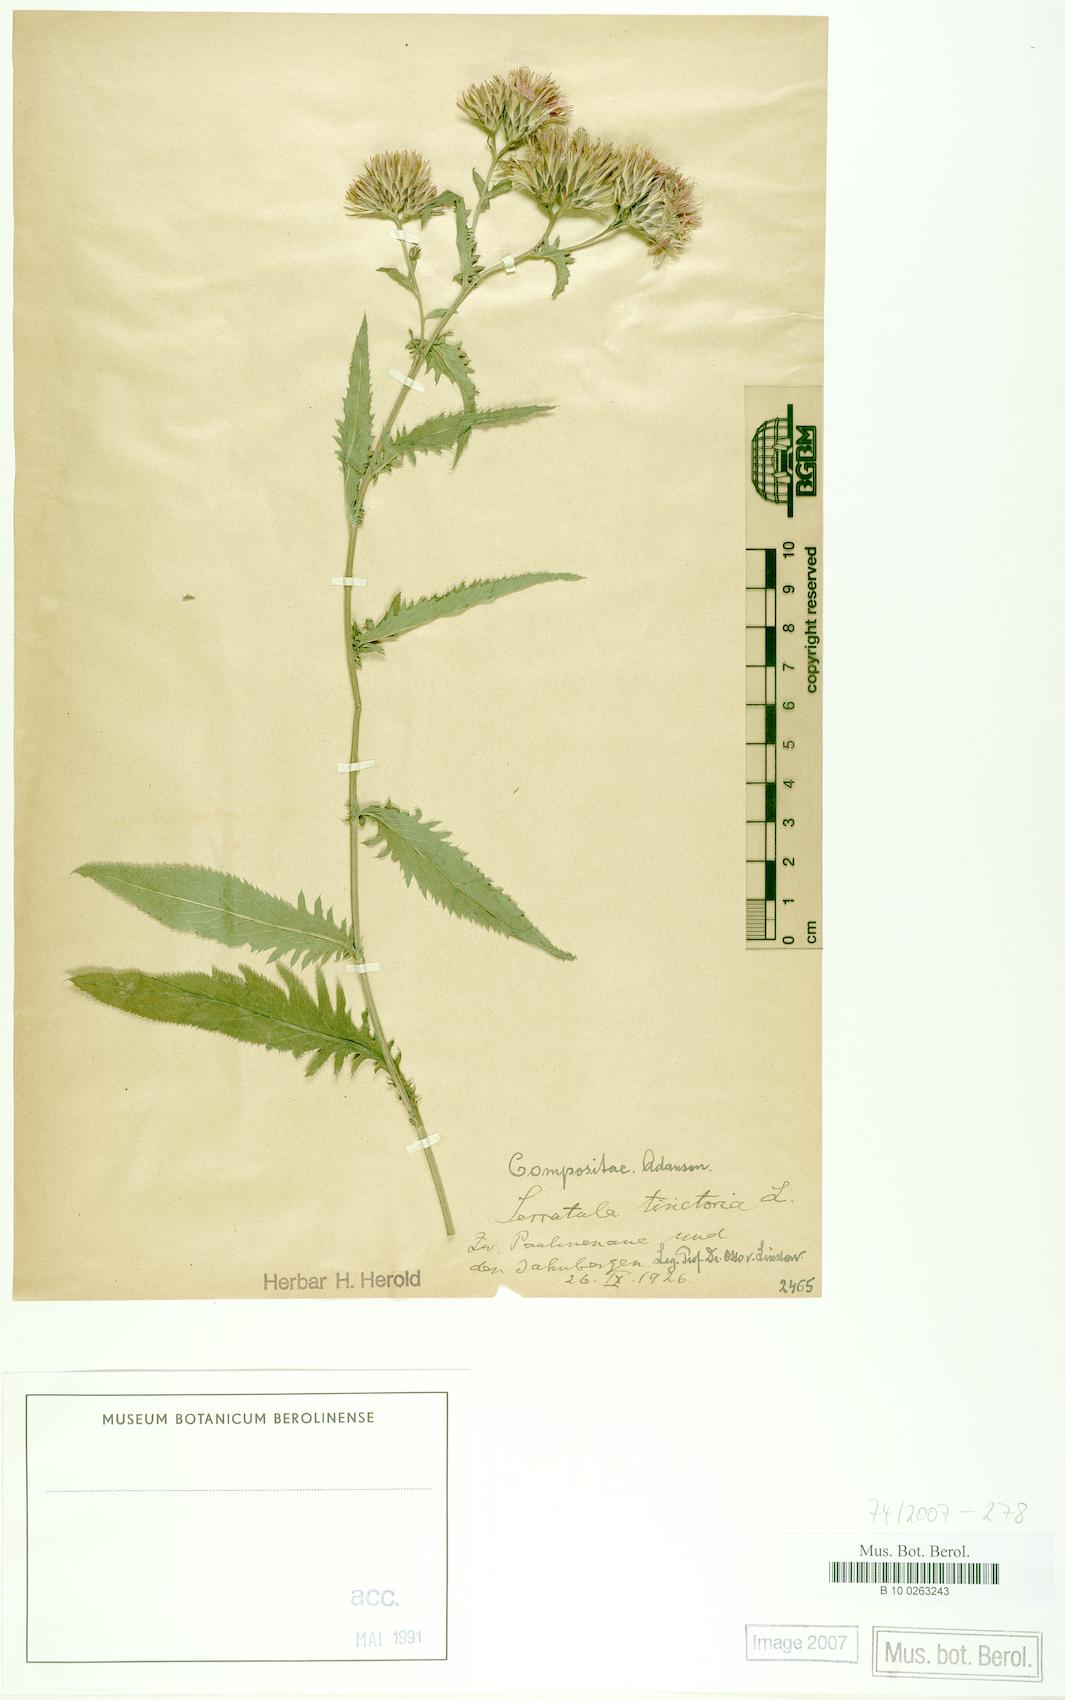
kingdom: Plantae
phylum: Tracheophyta
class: Magnoliopsida
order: Asterales
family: Asteraceae
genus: Serratula
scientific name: Serratula tinctoria
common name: Saw-wort
